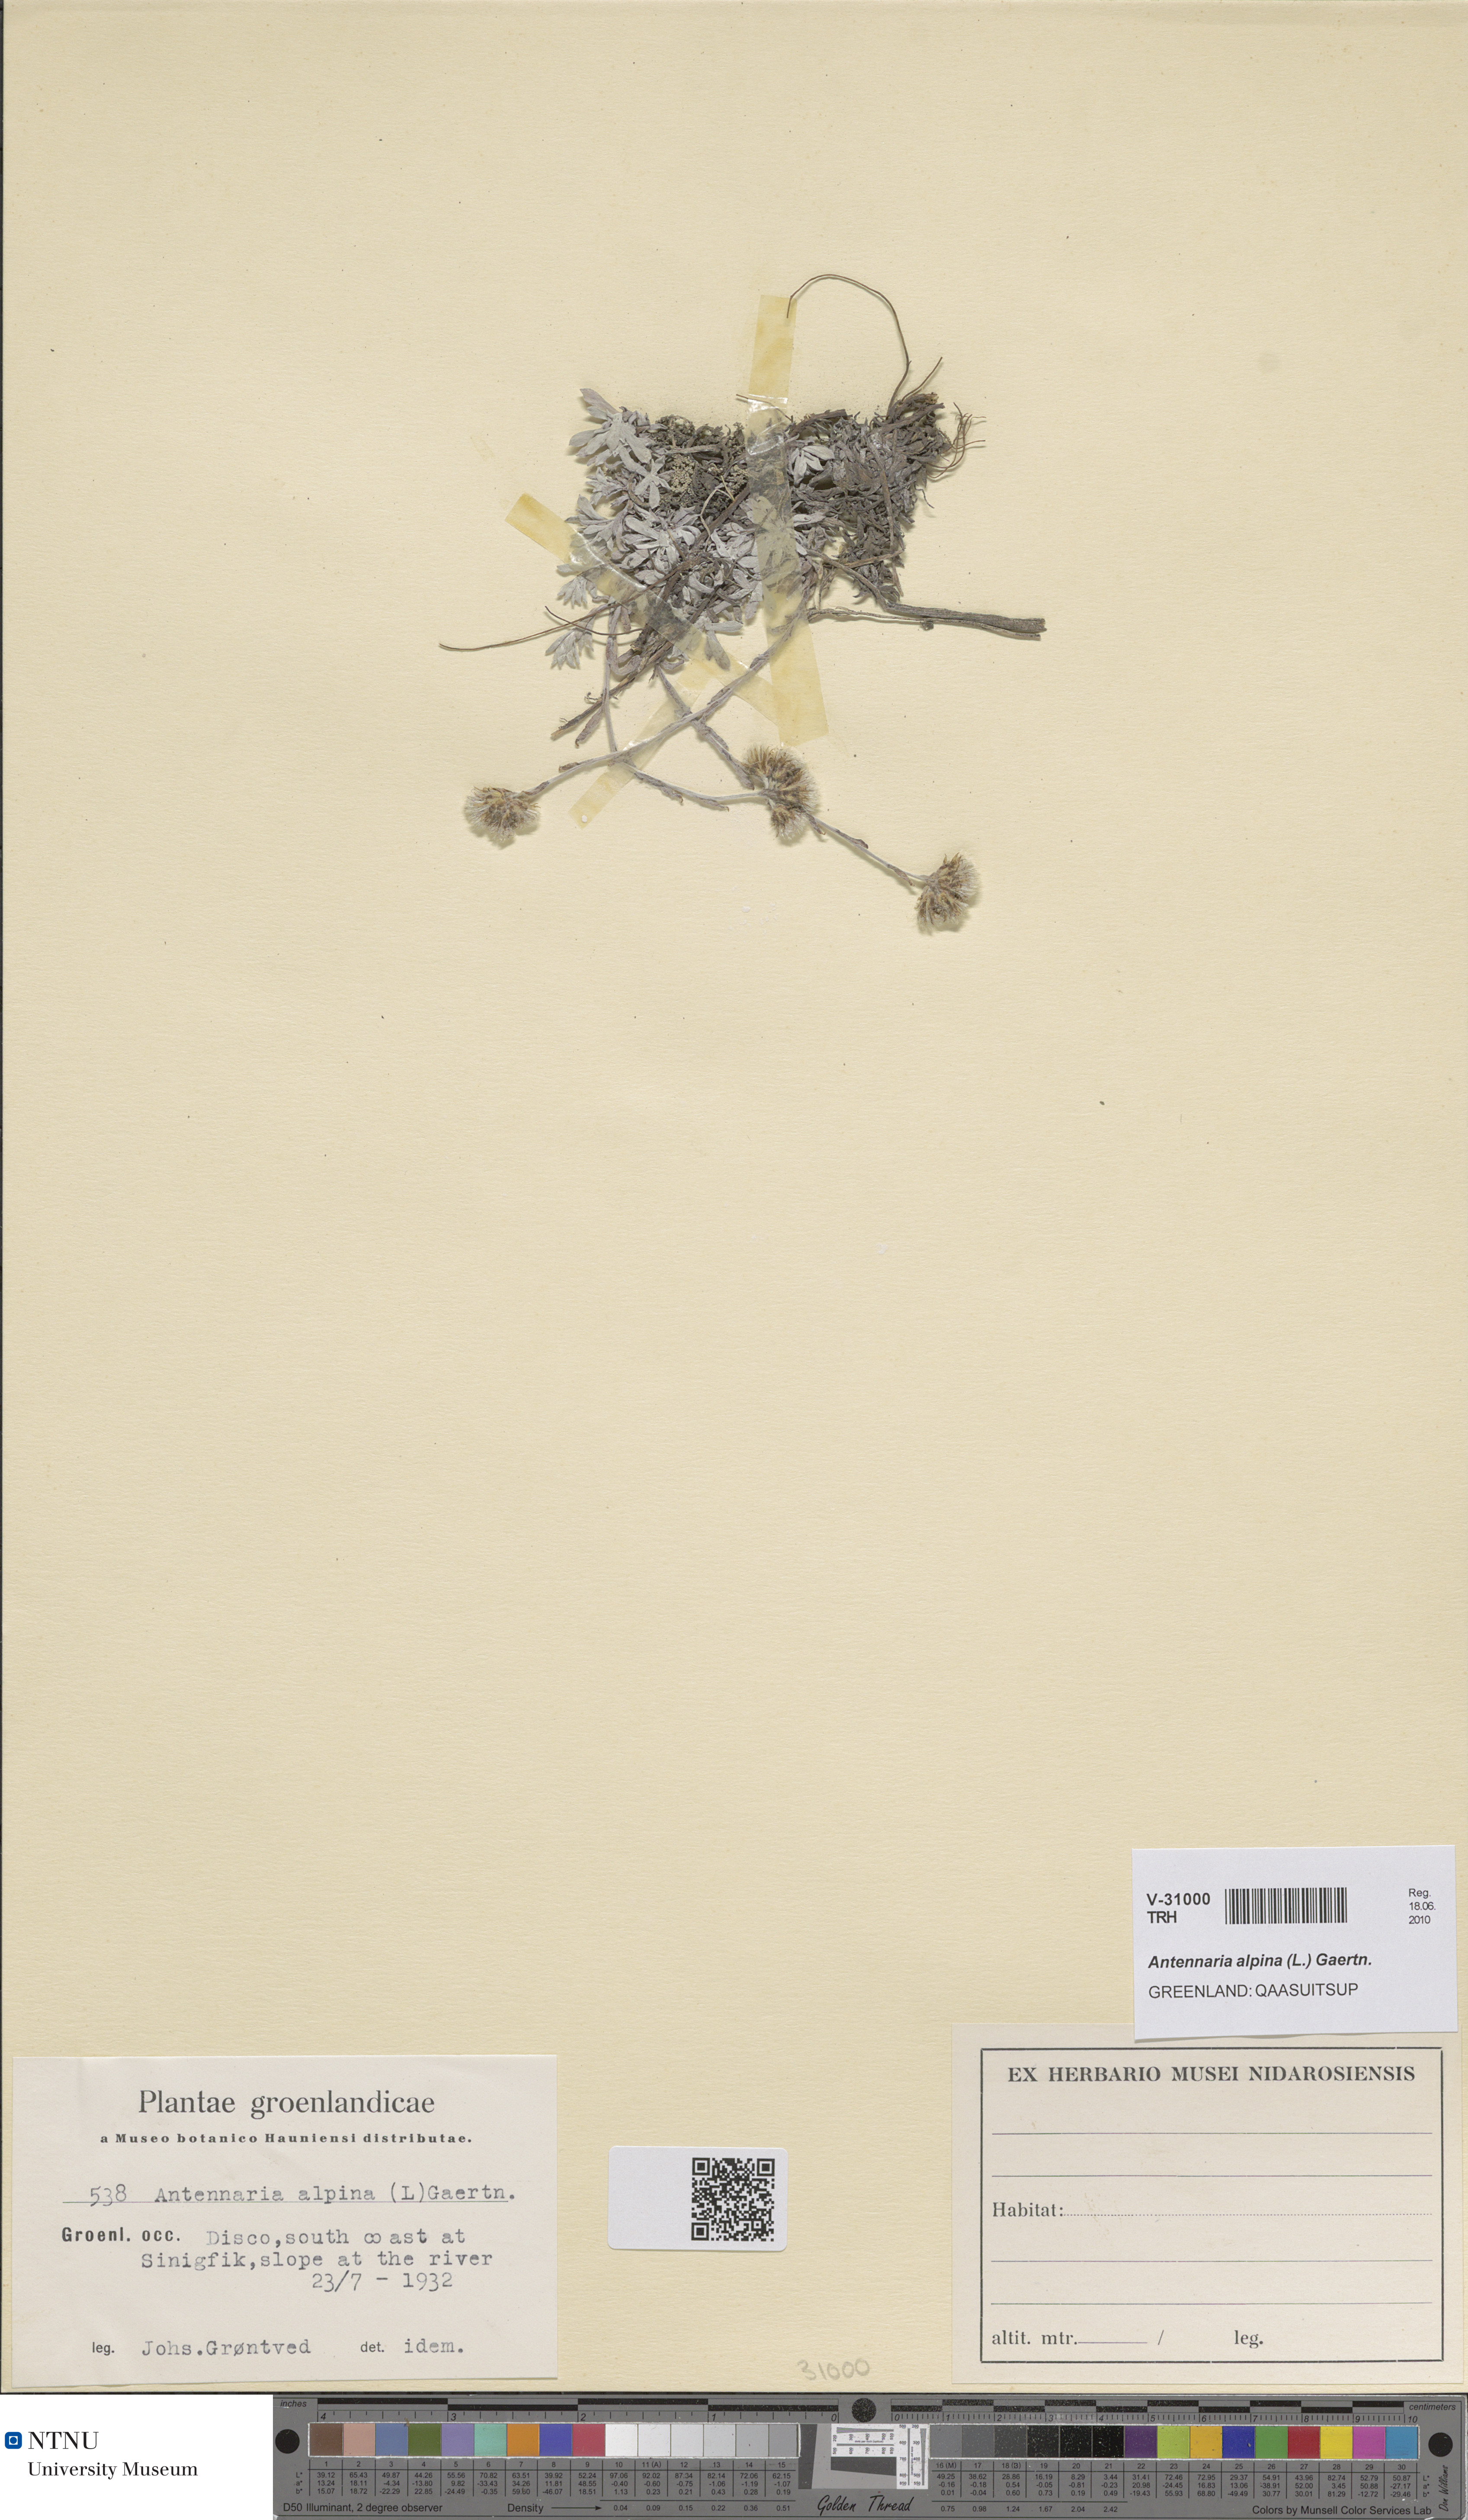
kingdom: Plantae
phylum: Tracheophyta
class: Magnoliopsida
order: Asterales
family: Asteraceae
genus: Antennaria
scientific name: Antennaria alpina
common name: Alpine pussytoes
